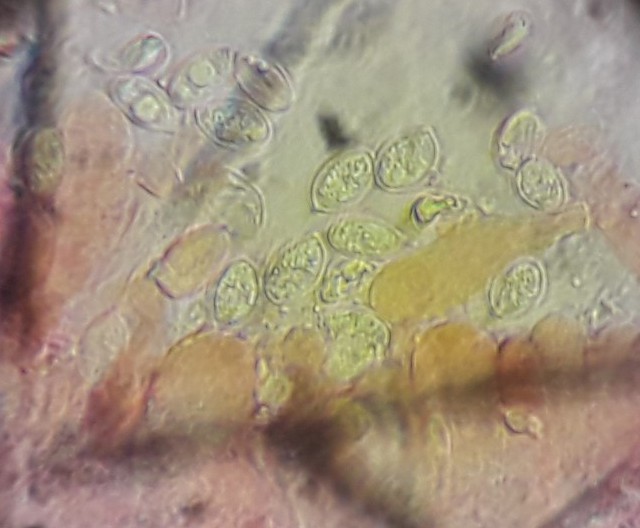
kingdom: Fungi
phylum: Basidiomycota
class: Agaricomycetes
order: Agaricales
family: Entolomataceae
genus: Clitopilus
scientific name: Clitopilus hobsonii
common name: Miller's oysterling
